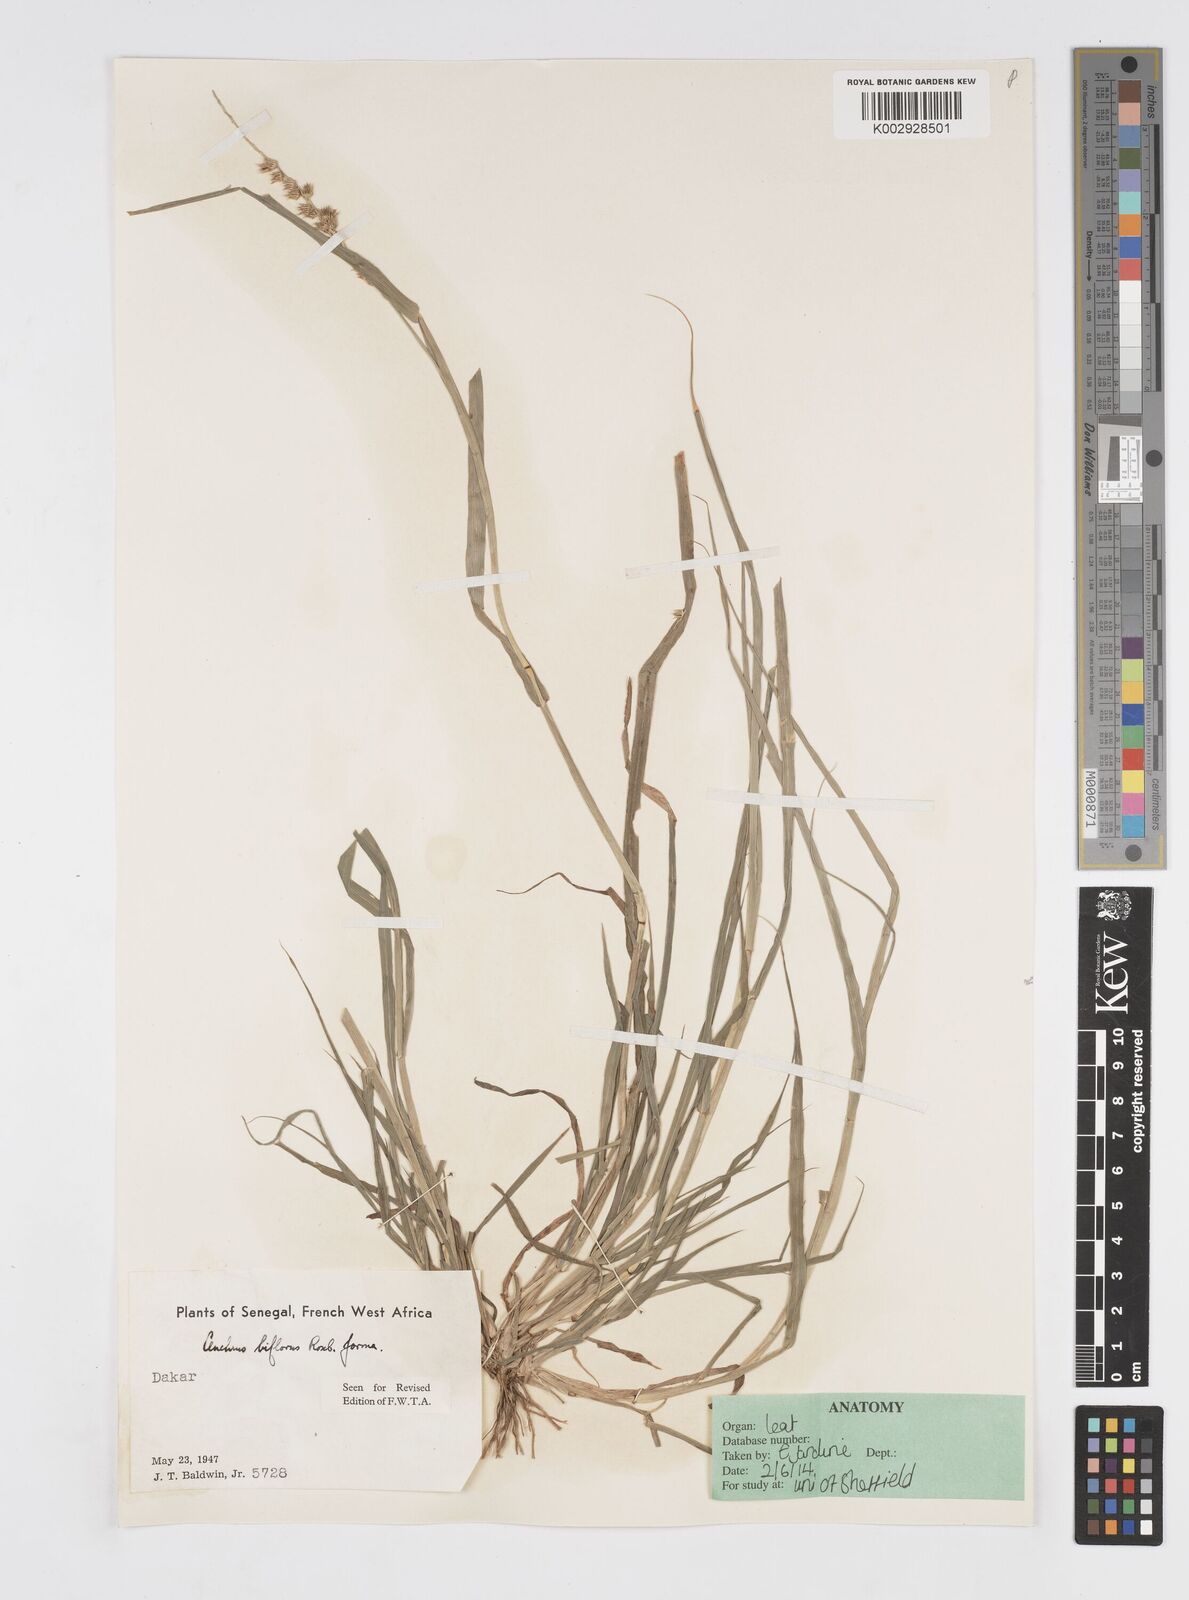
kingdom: Plantae
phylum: Tracheophyta
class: Liliopsida
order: Poales
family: Poaceae
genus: Cenchrus
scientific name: Cenchrus biflorus
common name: Indian sandbur
